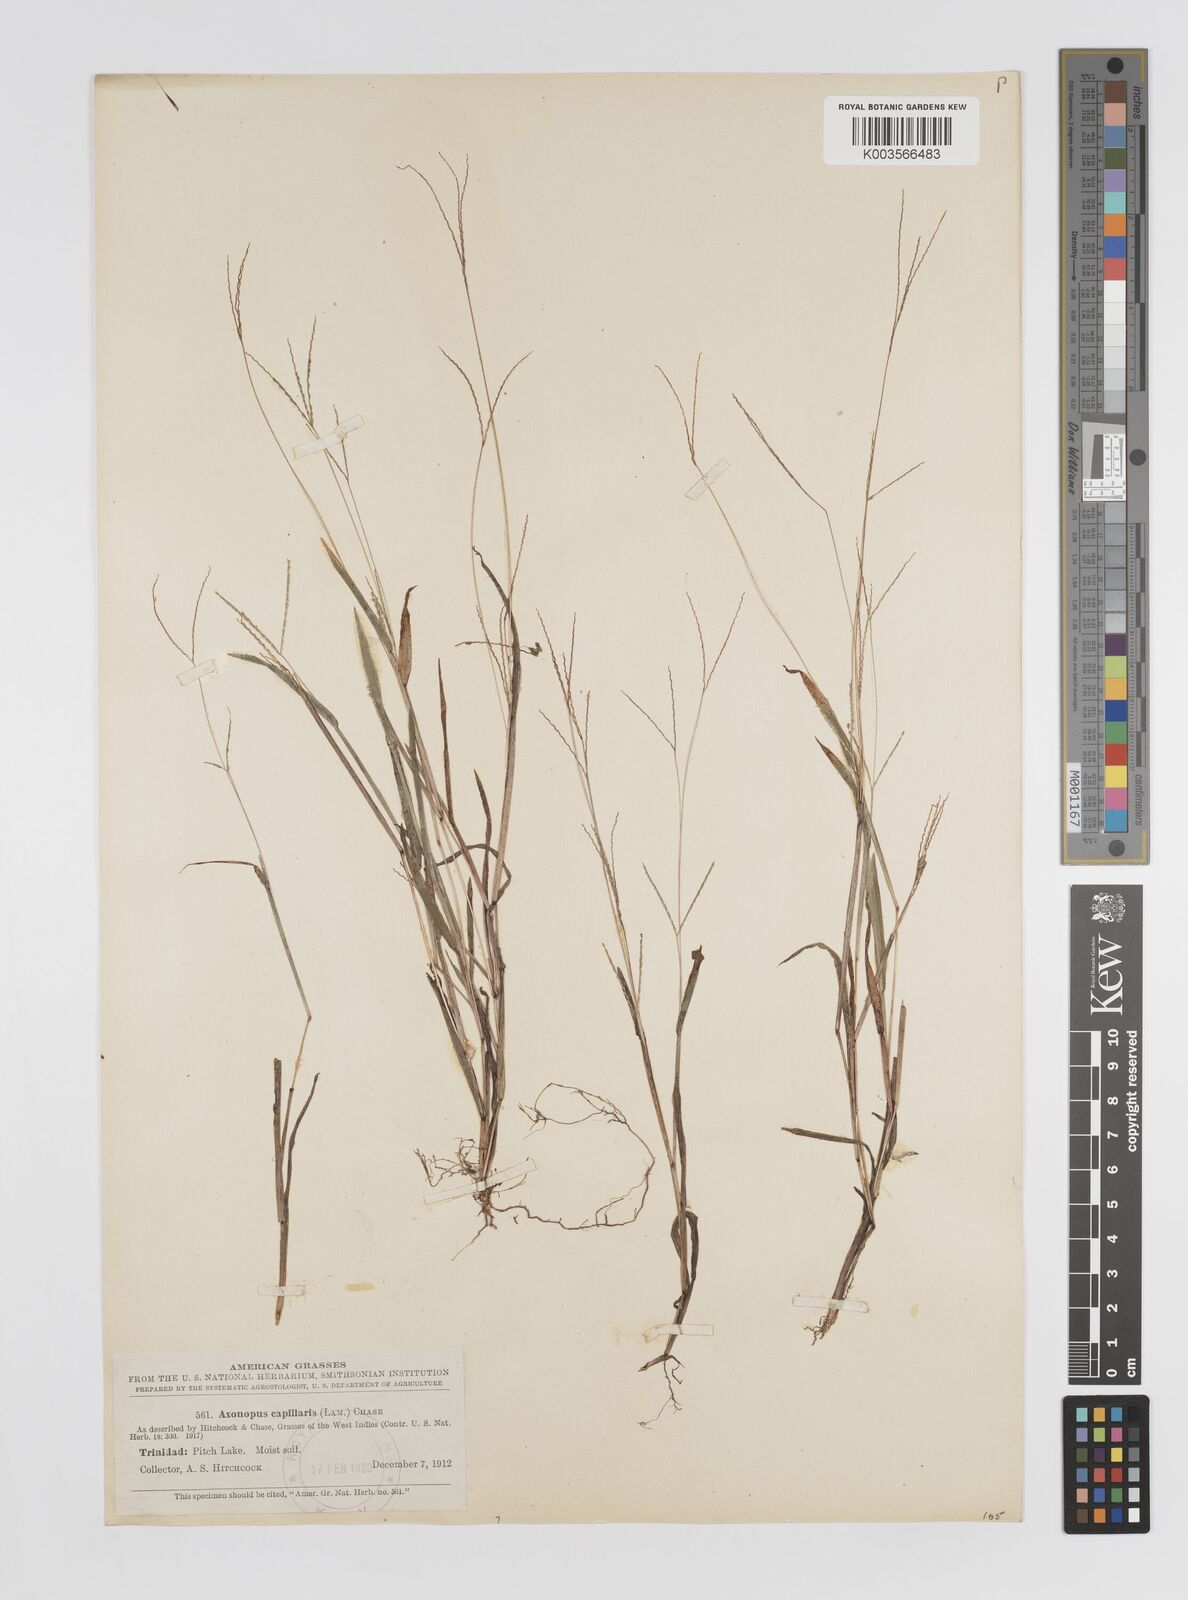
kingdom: Plantae
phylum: Tracheophyta
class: Liliopsida
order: Poales
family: Poaceae
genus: Axonopus
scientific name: Axonopus capillaris
